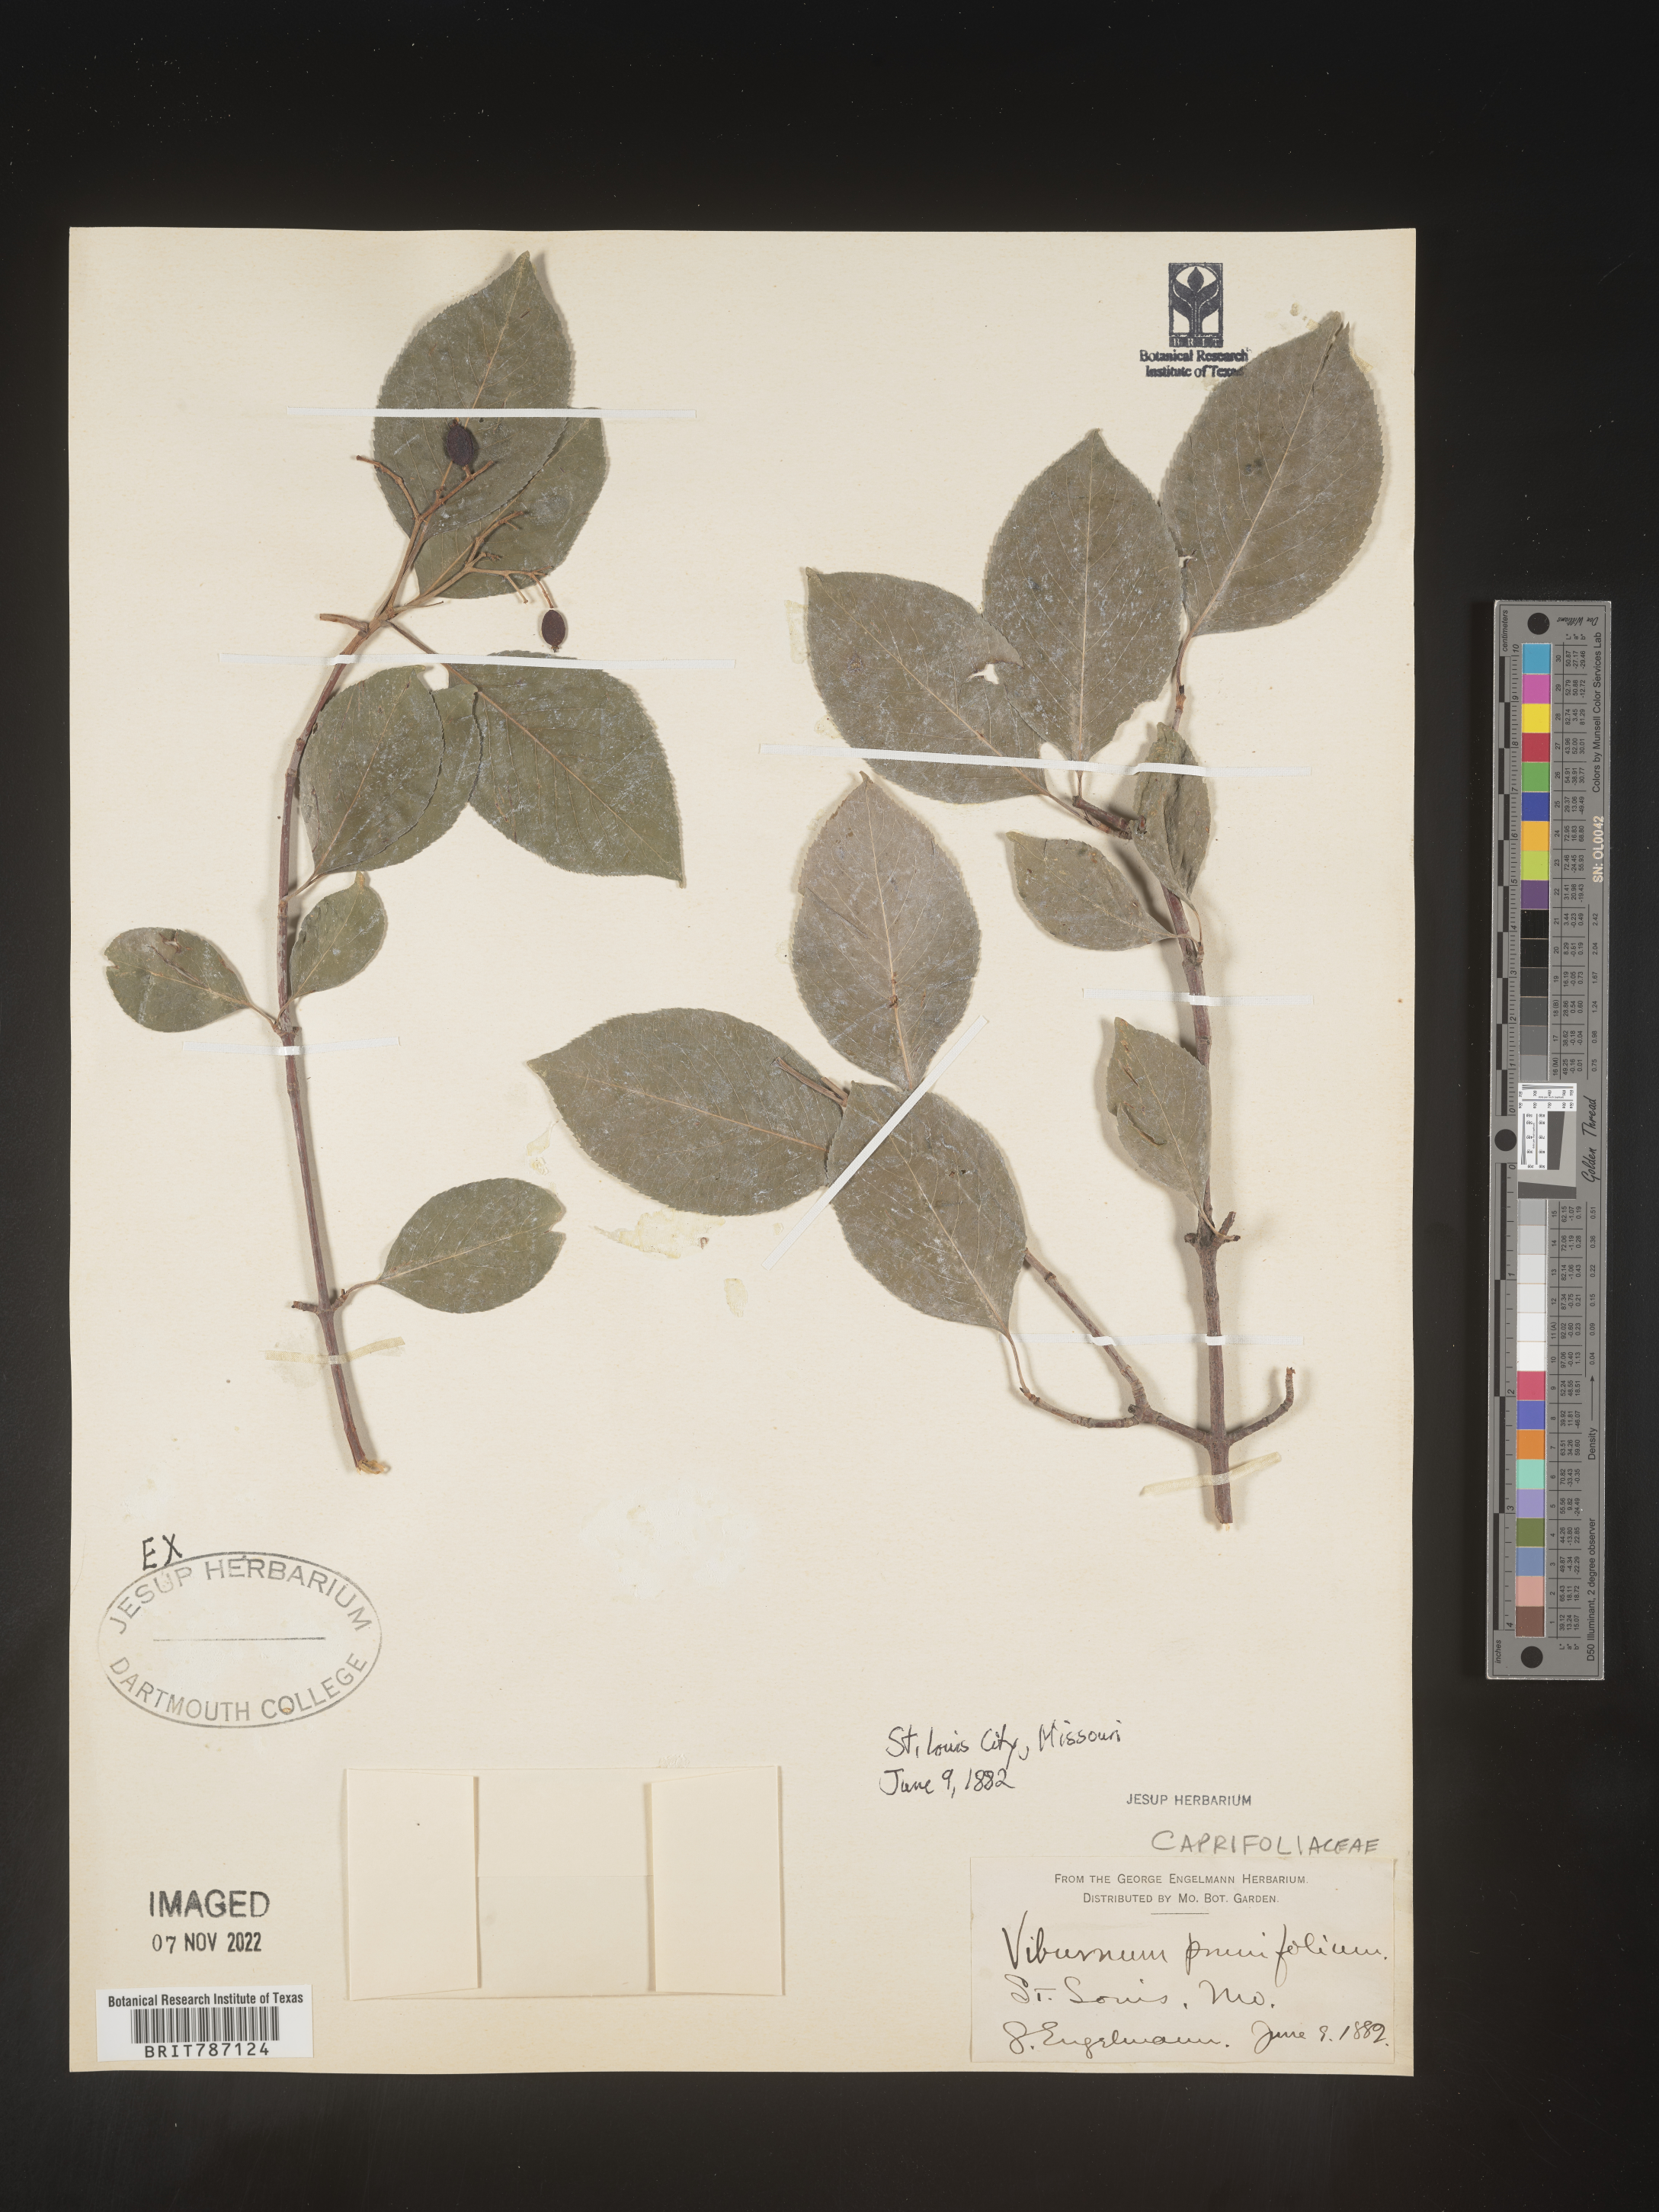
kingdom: Plantae
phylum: Tracheophyta
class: Magnoliopsida
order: Dipsacales
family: Viburnaceae
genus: Viburnum
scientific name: Viburnum prunifolium
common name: Black haw
